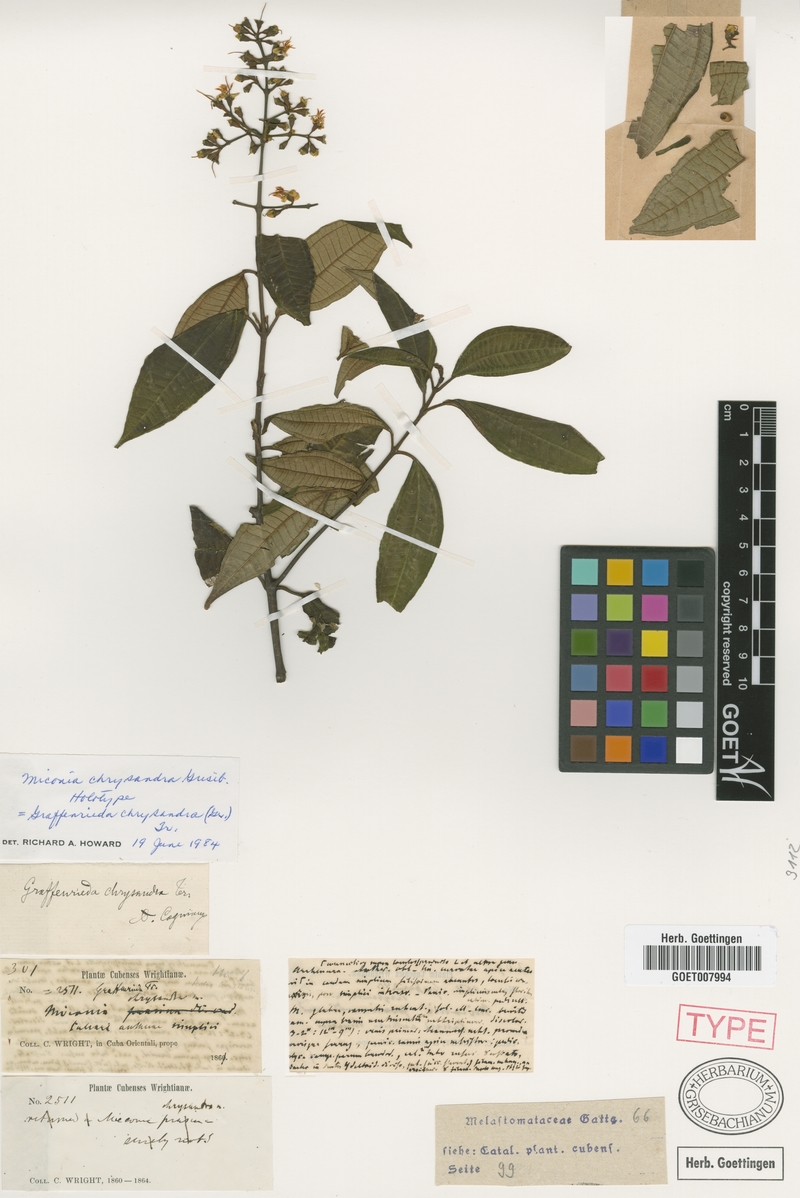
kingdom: Plantae
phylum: Tracheophyta
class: Magnoliopsida
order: Myrtales
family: Melastomataceae
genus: Graffenrieda
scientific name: Graffenrieda chrysandra
